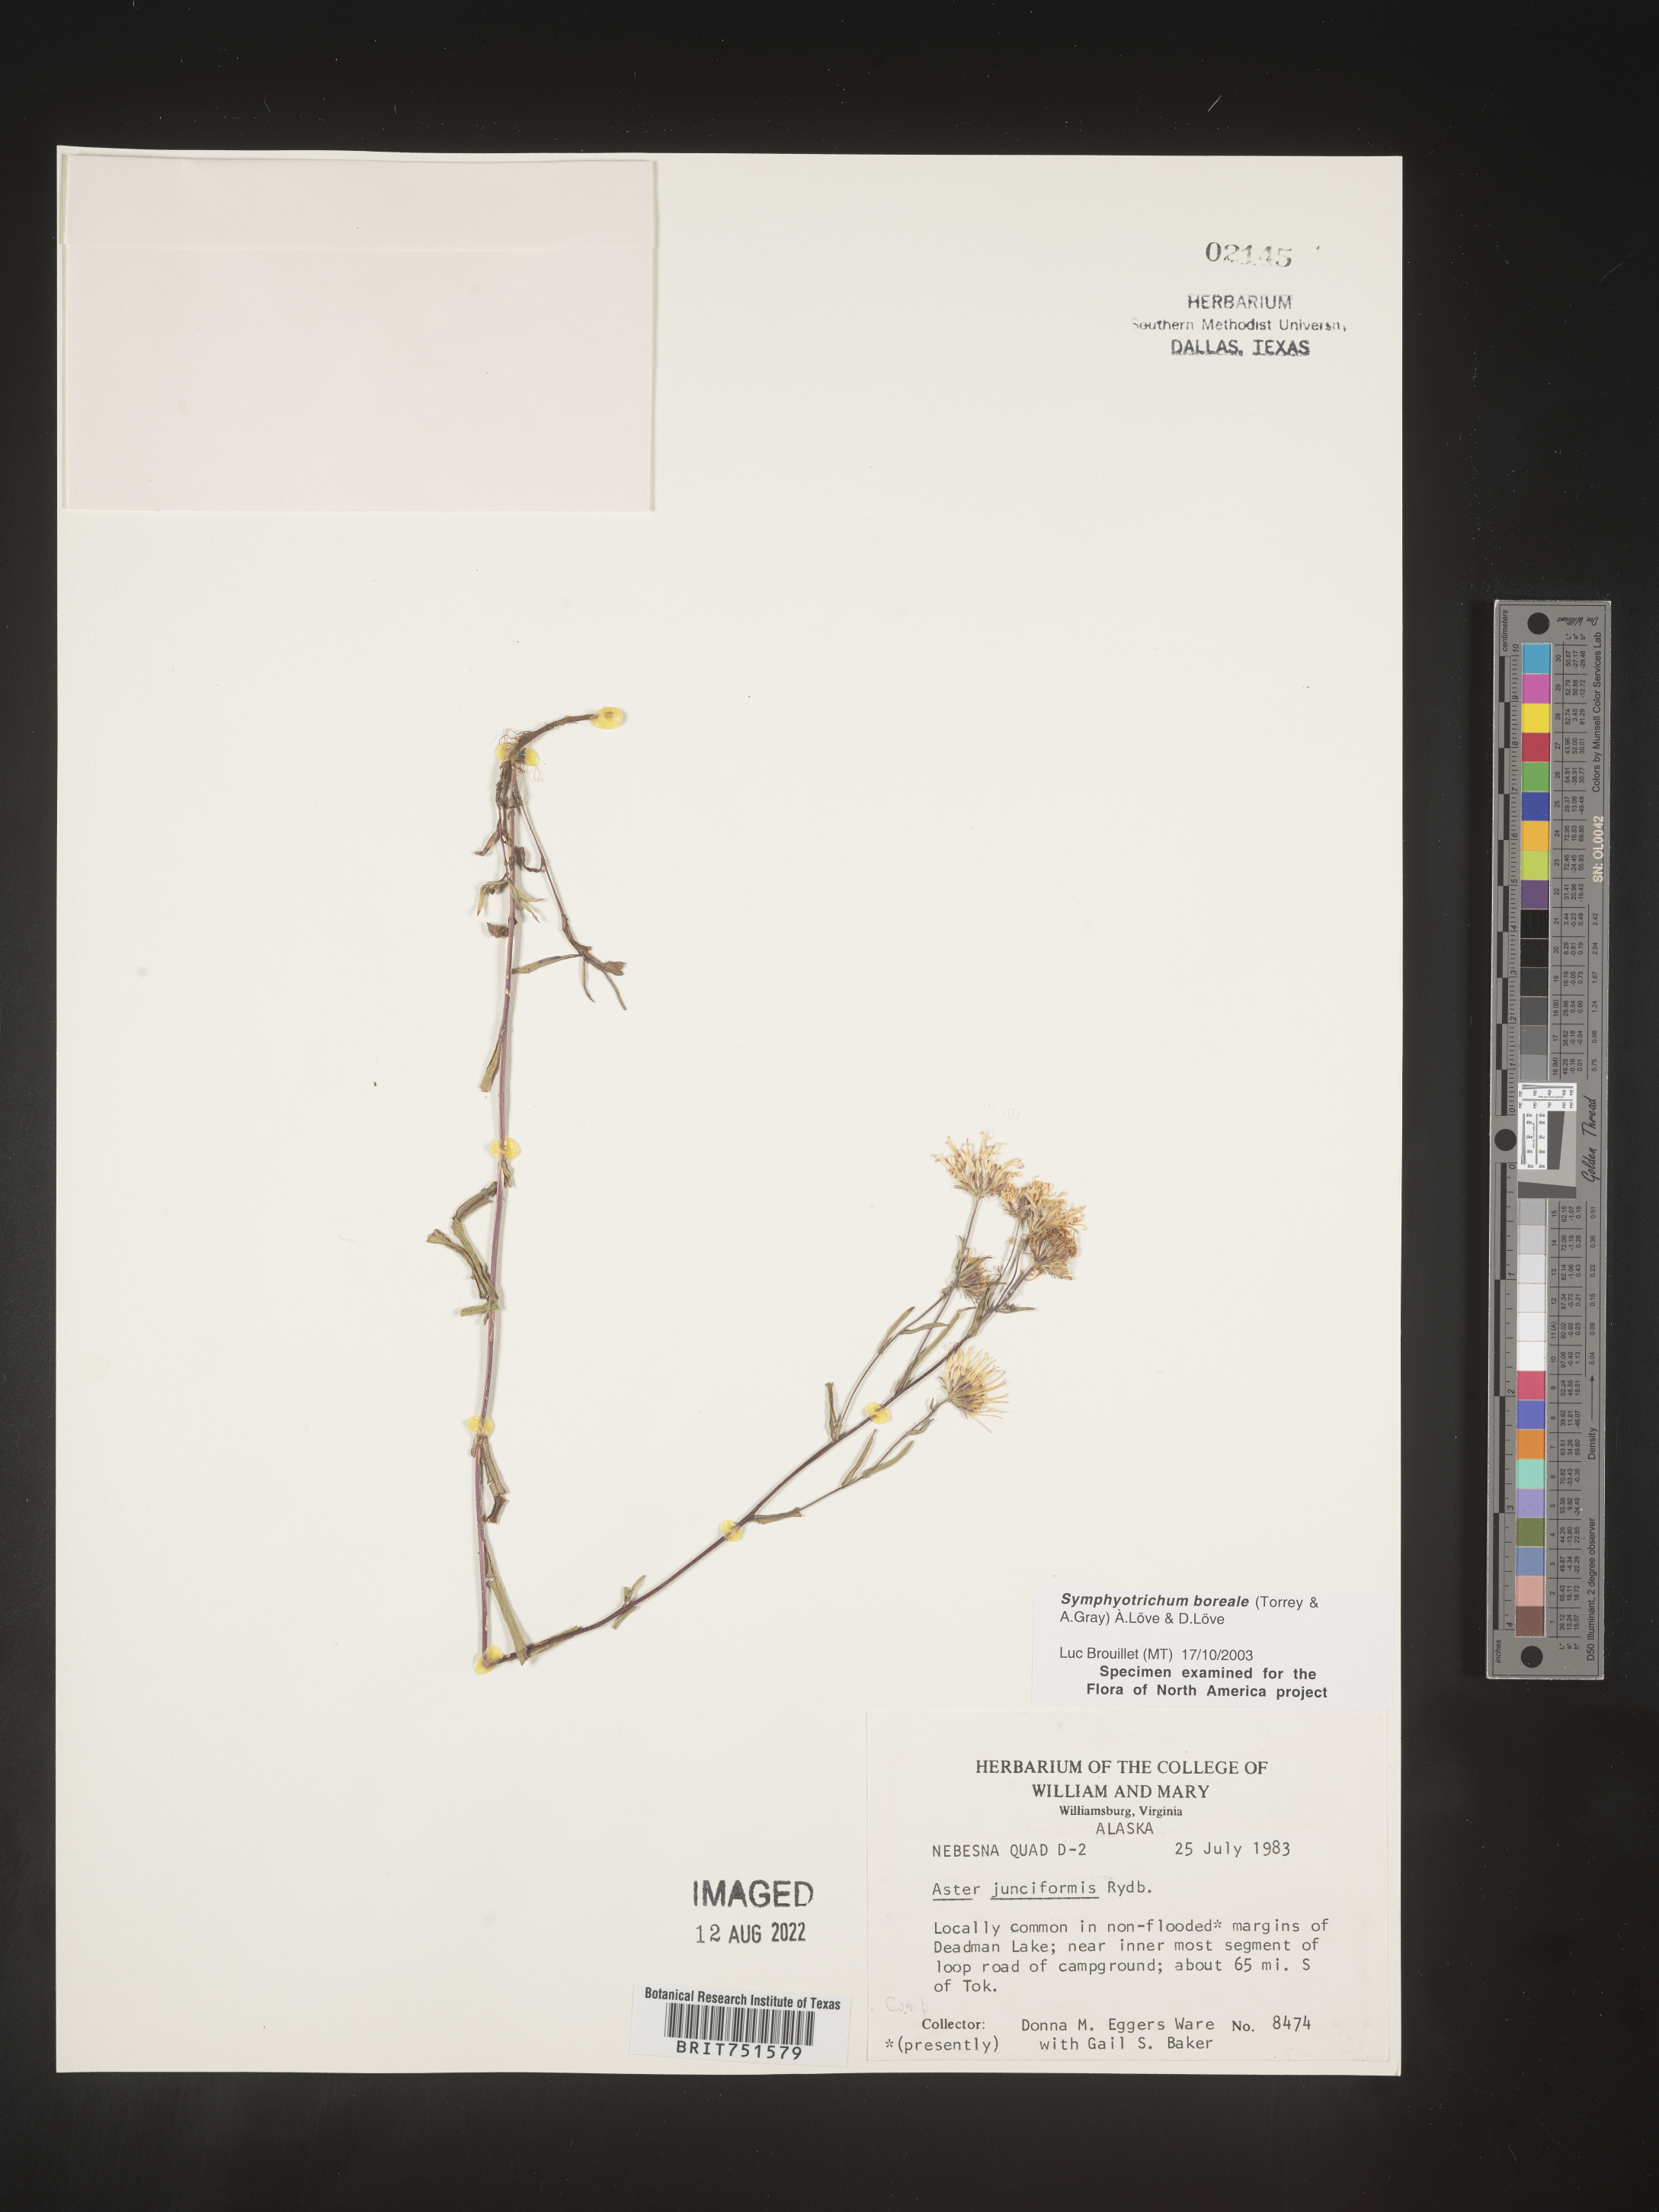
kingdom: Plantae
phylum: Tracheophyta
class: Magnoliopsida
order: Asterales
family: Asteraceae
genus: Symphyotrichum
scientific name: Symphyotrichum boreale
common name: Northern bog aster
